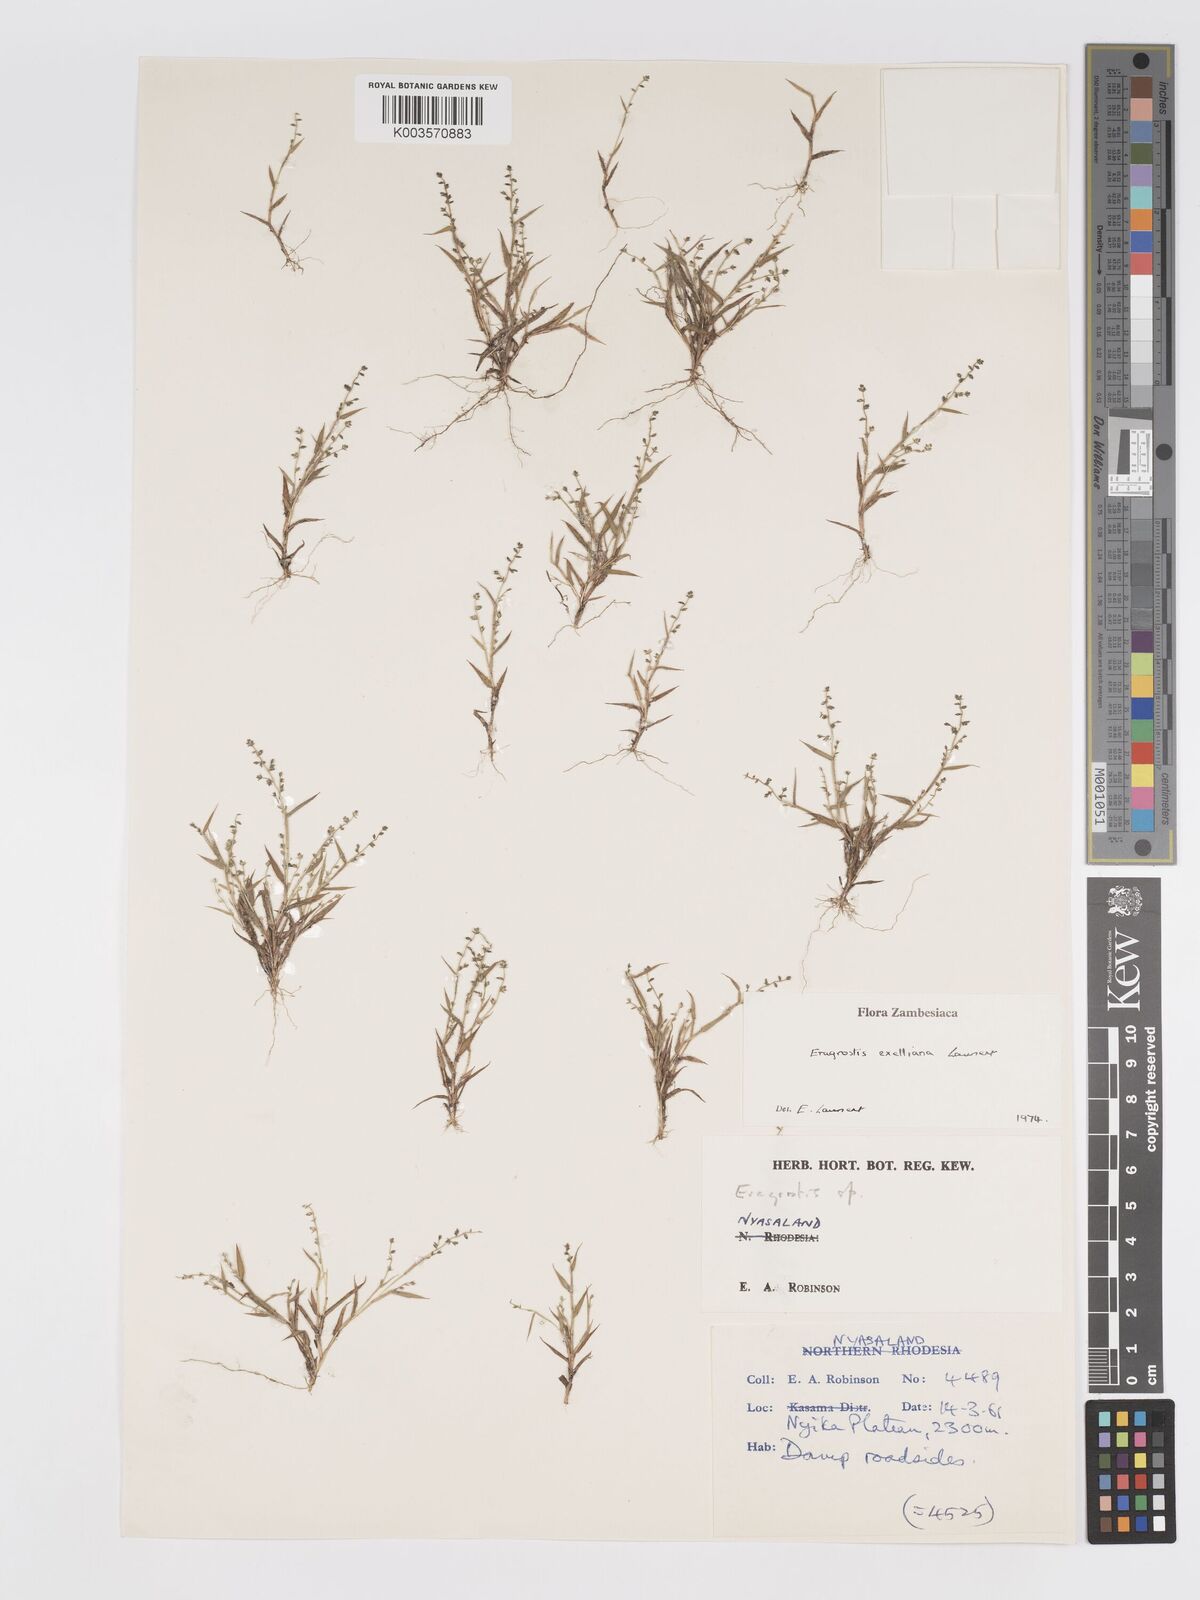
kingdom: Plantae
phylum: Tracheophyta
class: Liliopsida
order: Poales
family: Poaceae
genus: Eragrostis
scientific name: Eragrostis exelliana
